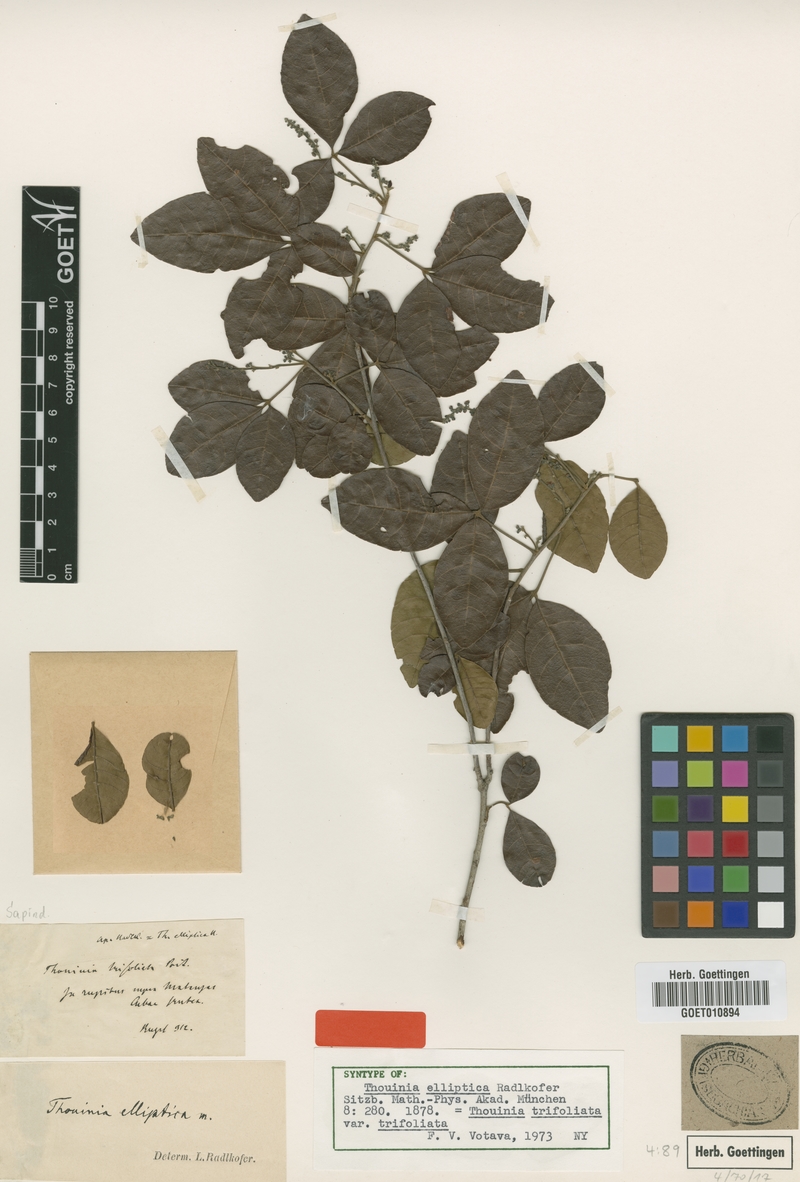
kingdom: Plantae
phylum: Tracheophyta
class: Magnoliopsida
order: Sapindales
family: Sapindaceae
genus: Thouinia
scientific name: Thouinia trifoliata
